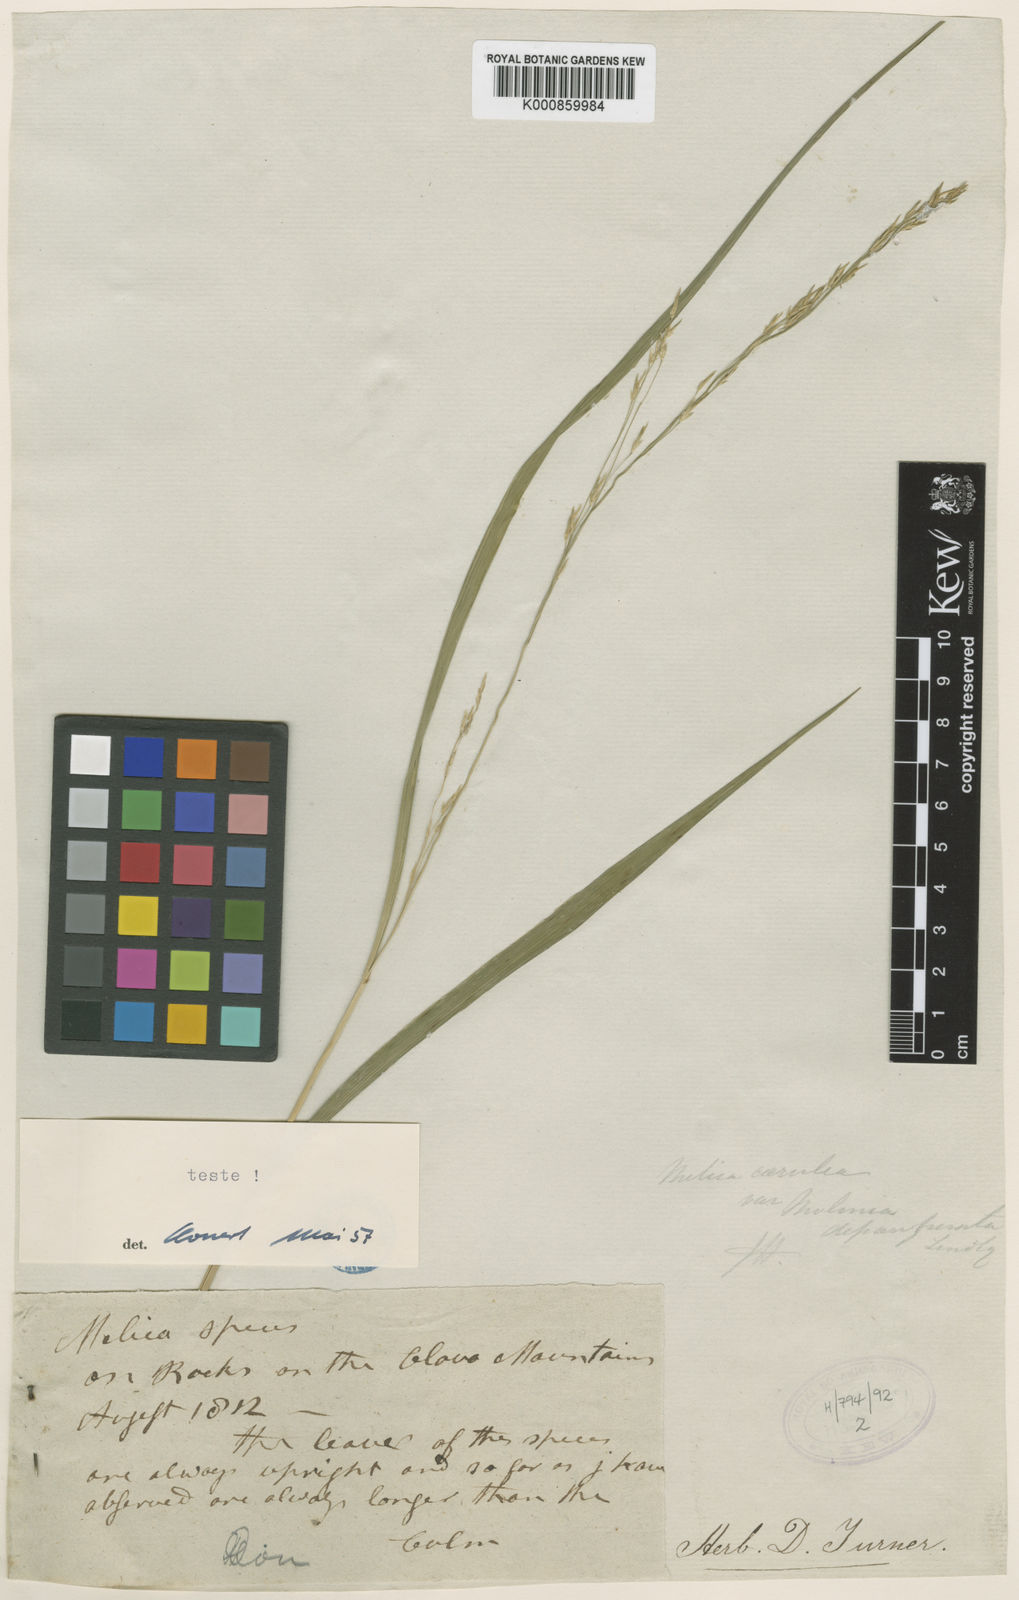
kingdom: Plantae
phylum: Tracheophyta
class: Liliopsida
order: Poales
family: Poaceae
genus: Molinia
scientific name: Molinia caerulea
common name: Purple moor-grass
